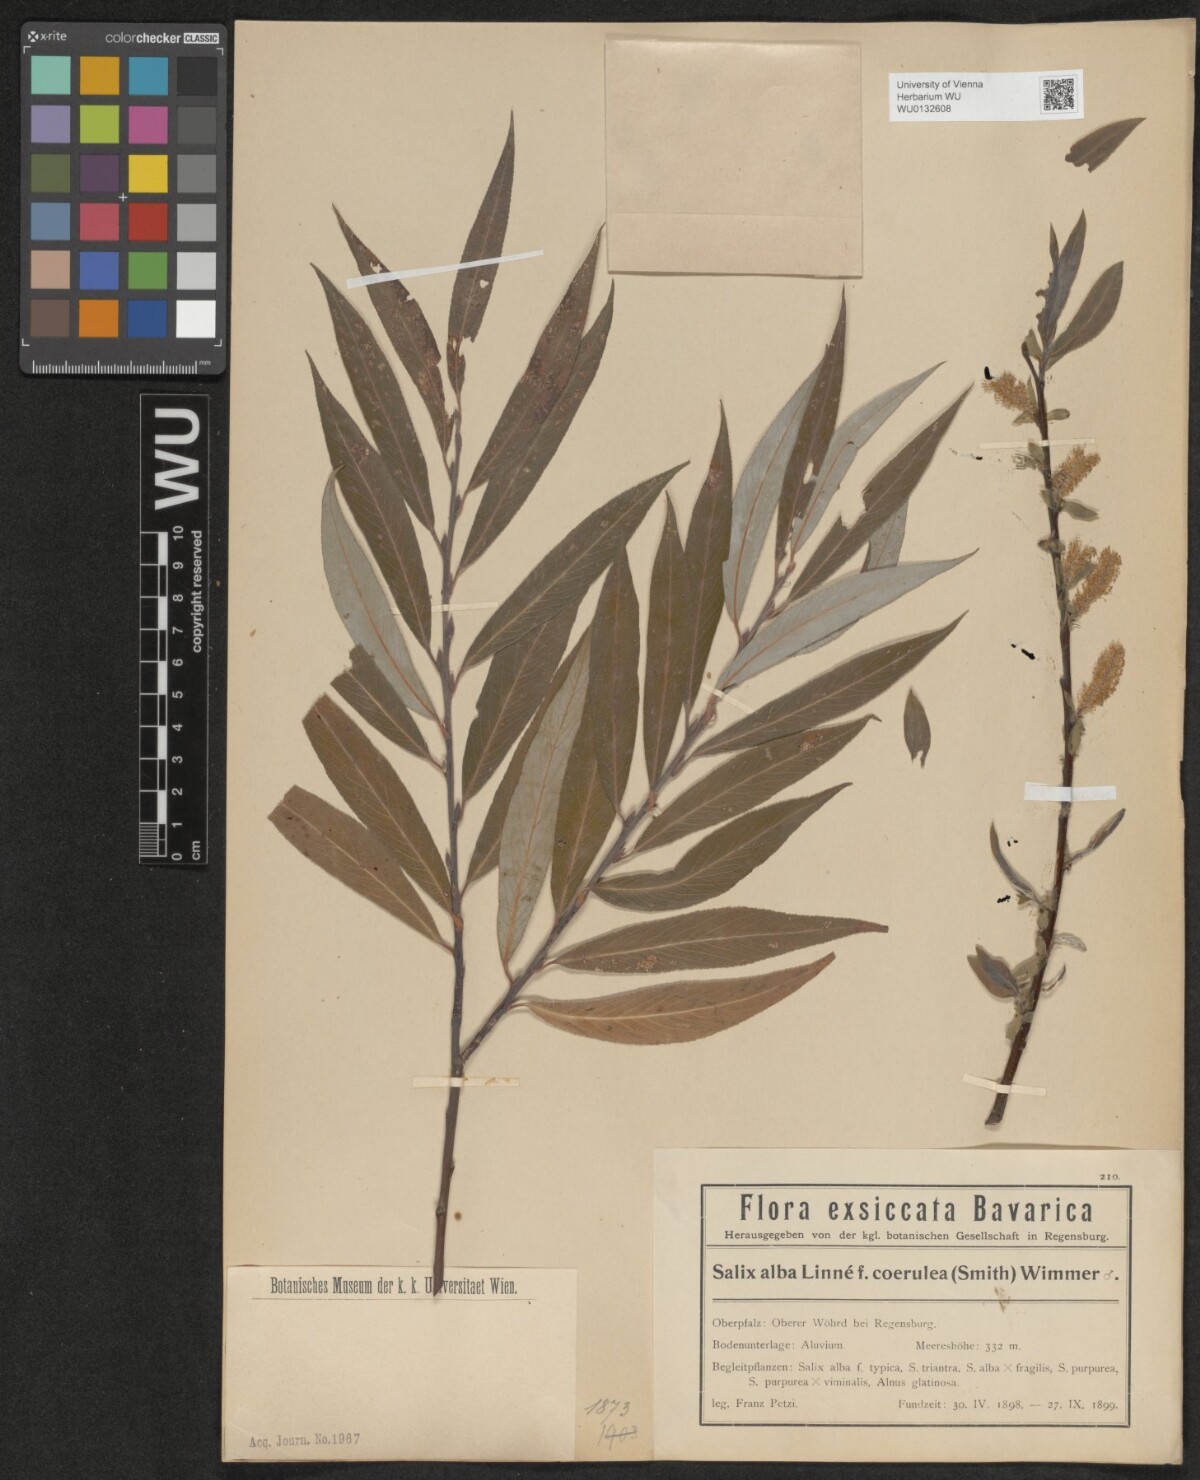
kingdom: Plantae
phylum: Tracheophyta
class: Magnoliopsida
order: Malpighiales
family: Salicaceae
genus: Salix
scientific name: Salix alba
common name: White willow
